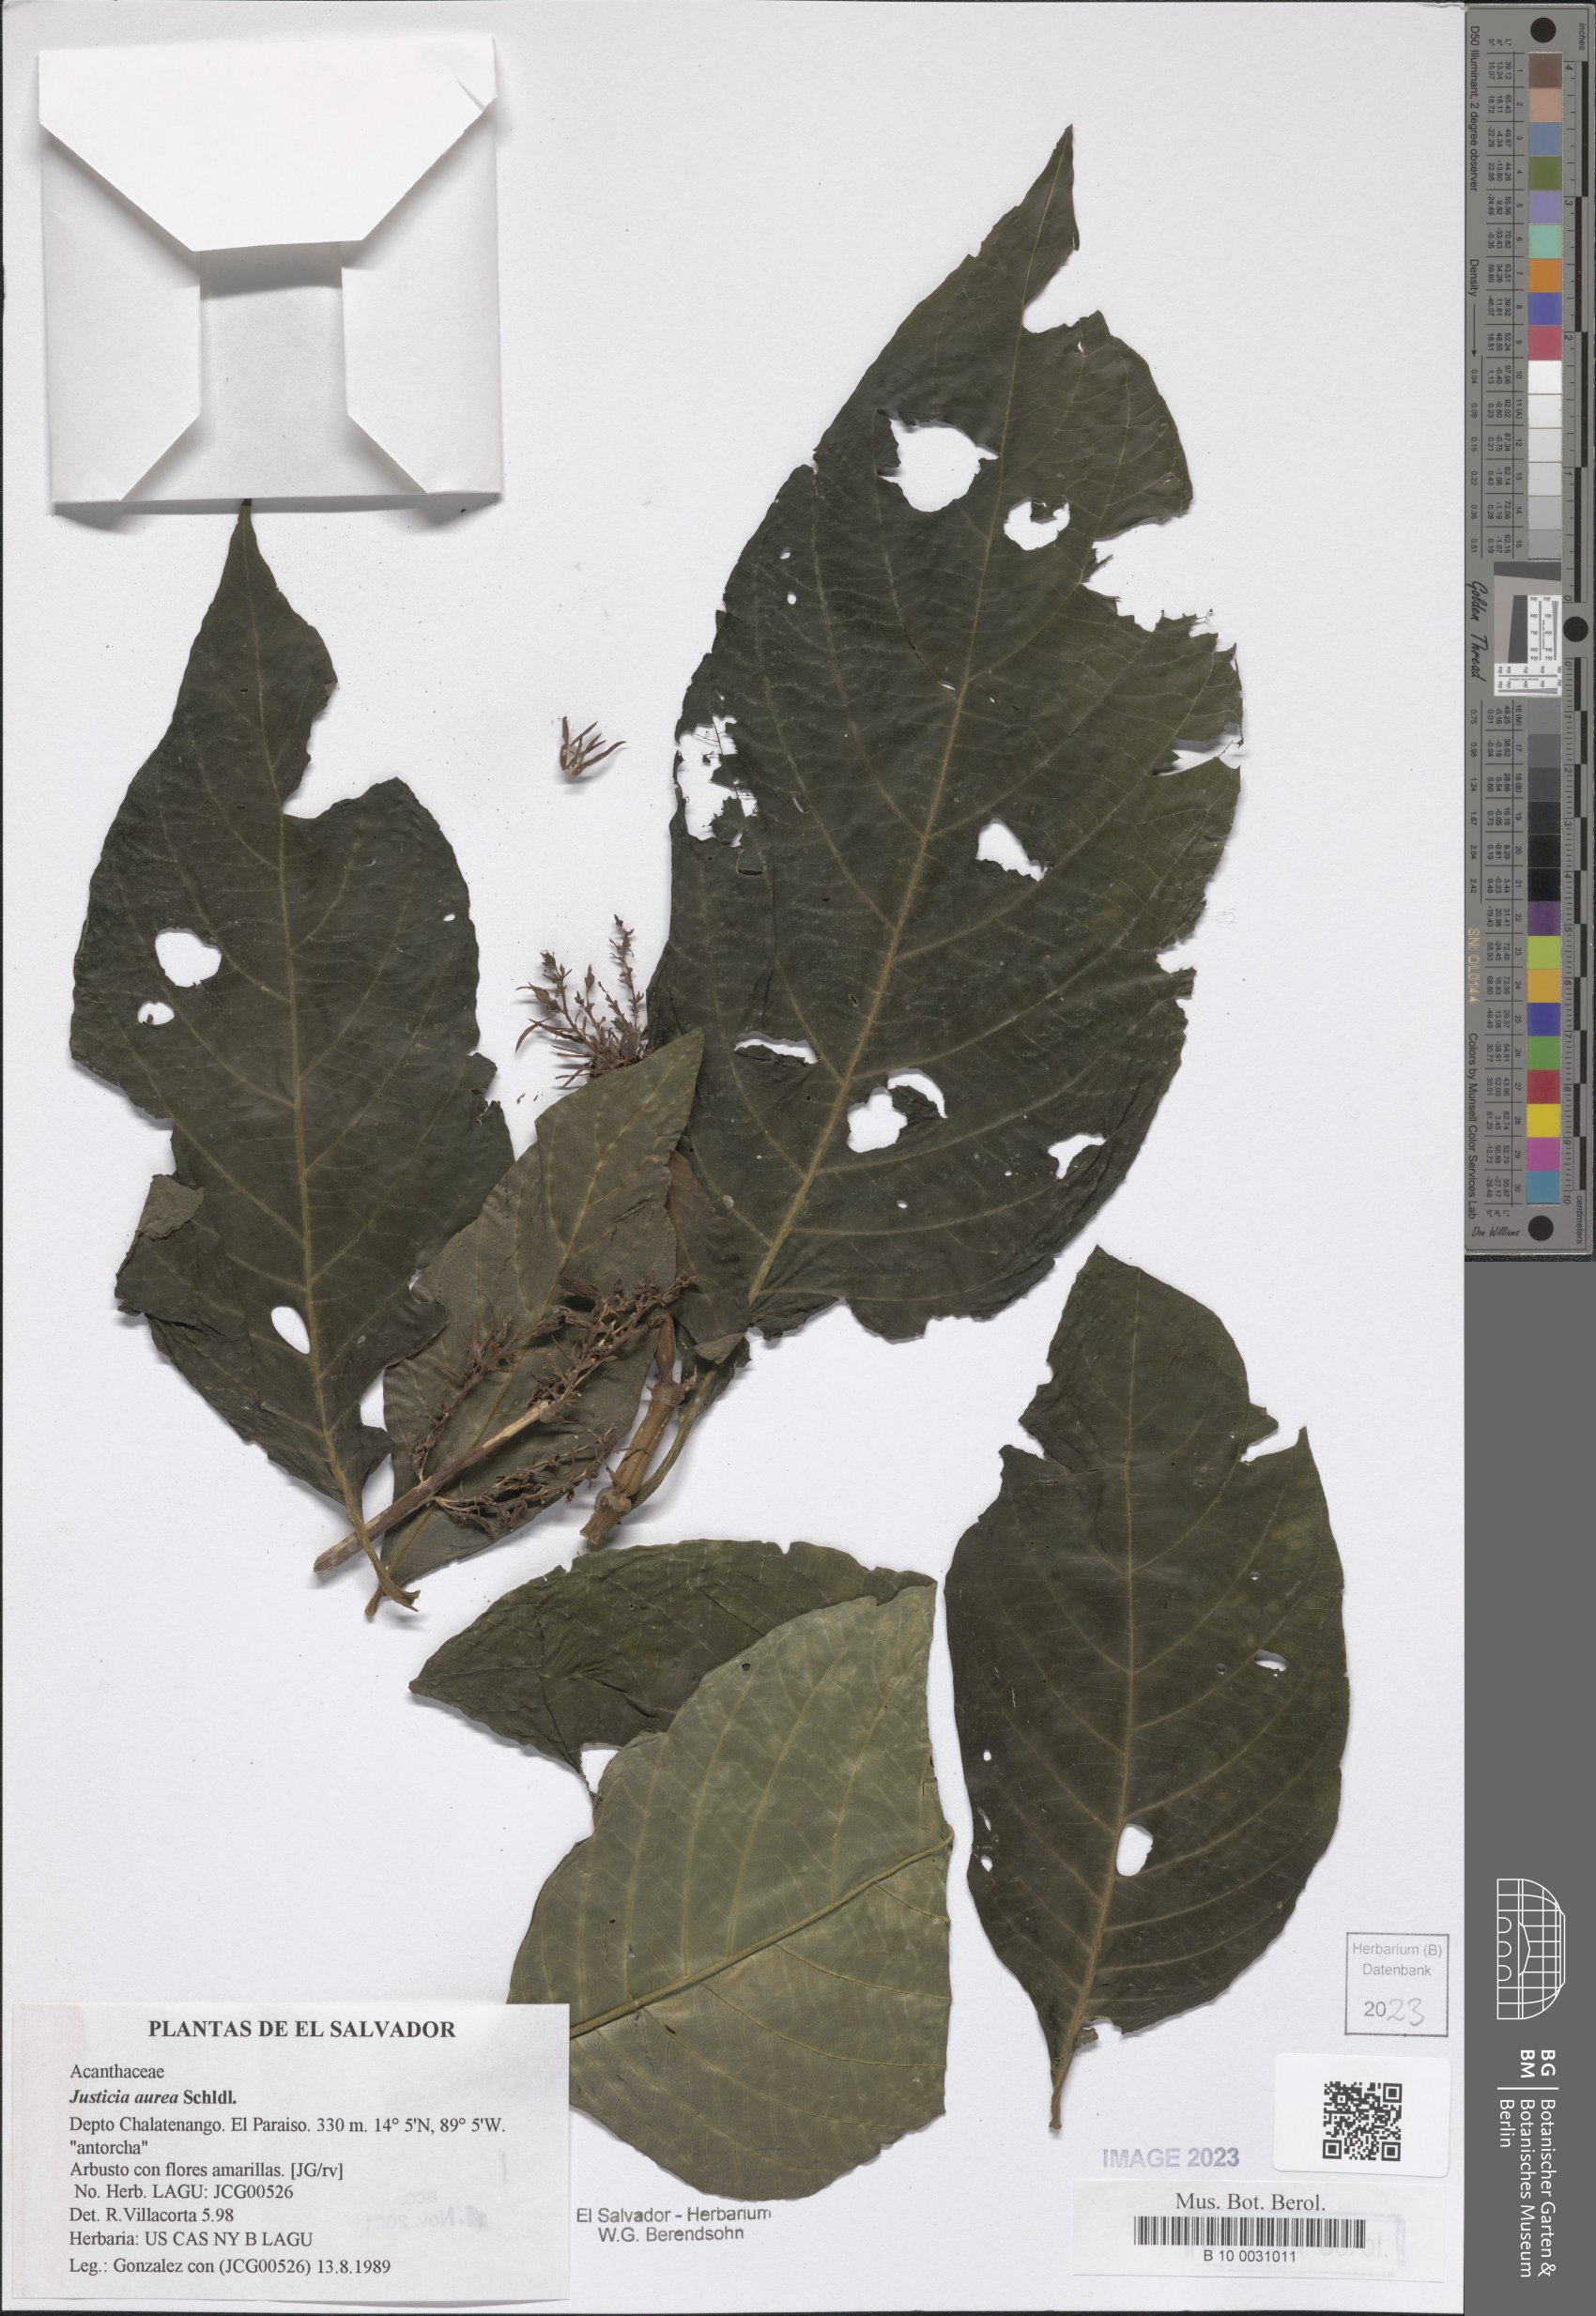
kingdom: Plantae
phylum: Tracheophyta
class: Magnoliopsida
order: Lamiales
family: Acanthaceae
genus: Justicia
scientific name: Justicia aurea
